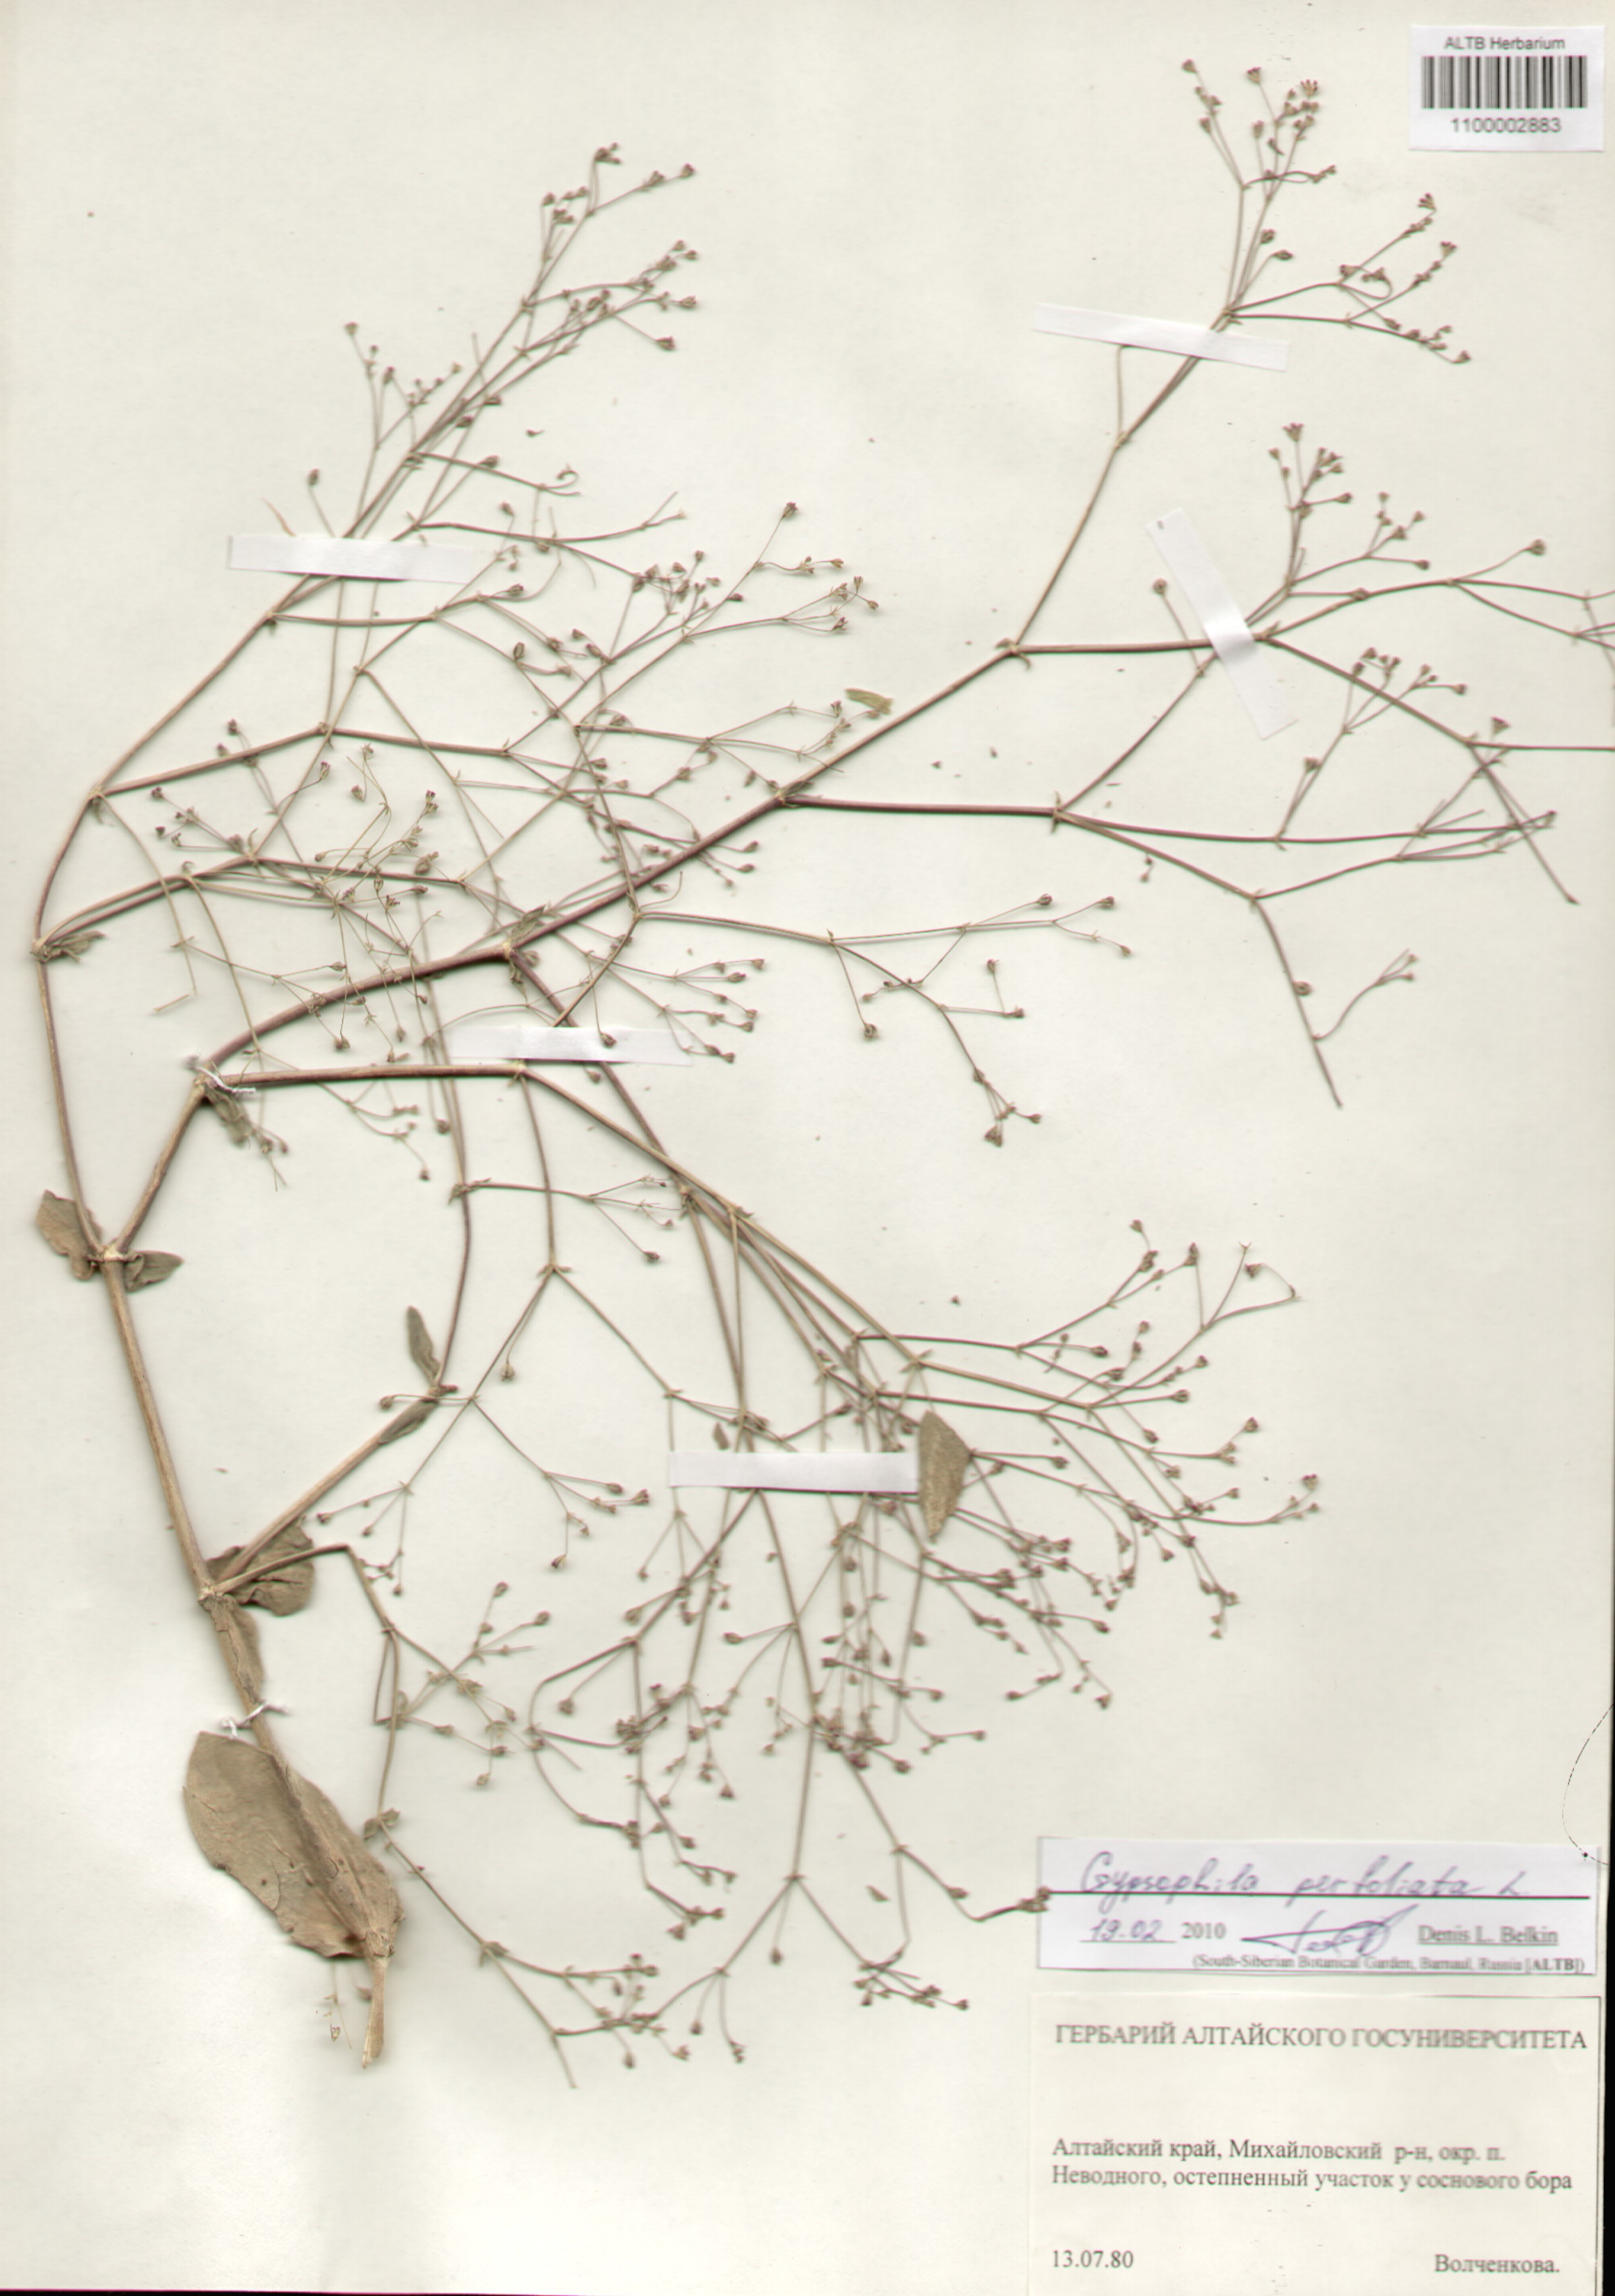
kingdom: Plantae
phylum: Tracheophyta
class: Magnoliopsida
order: Caryophyllales
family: Caryophyllaceae
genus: Gypsophila
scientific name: Gypsophila perfoliata
